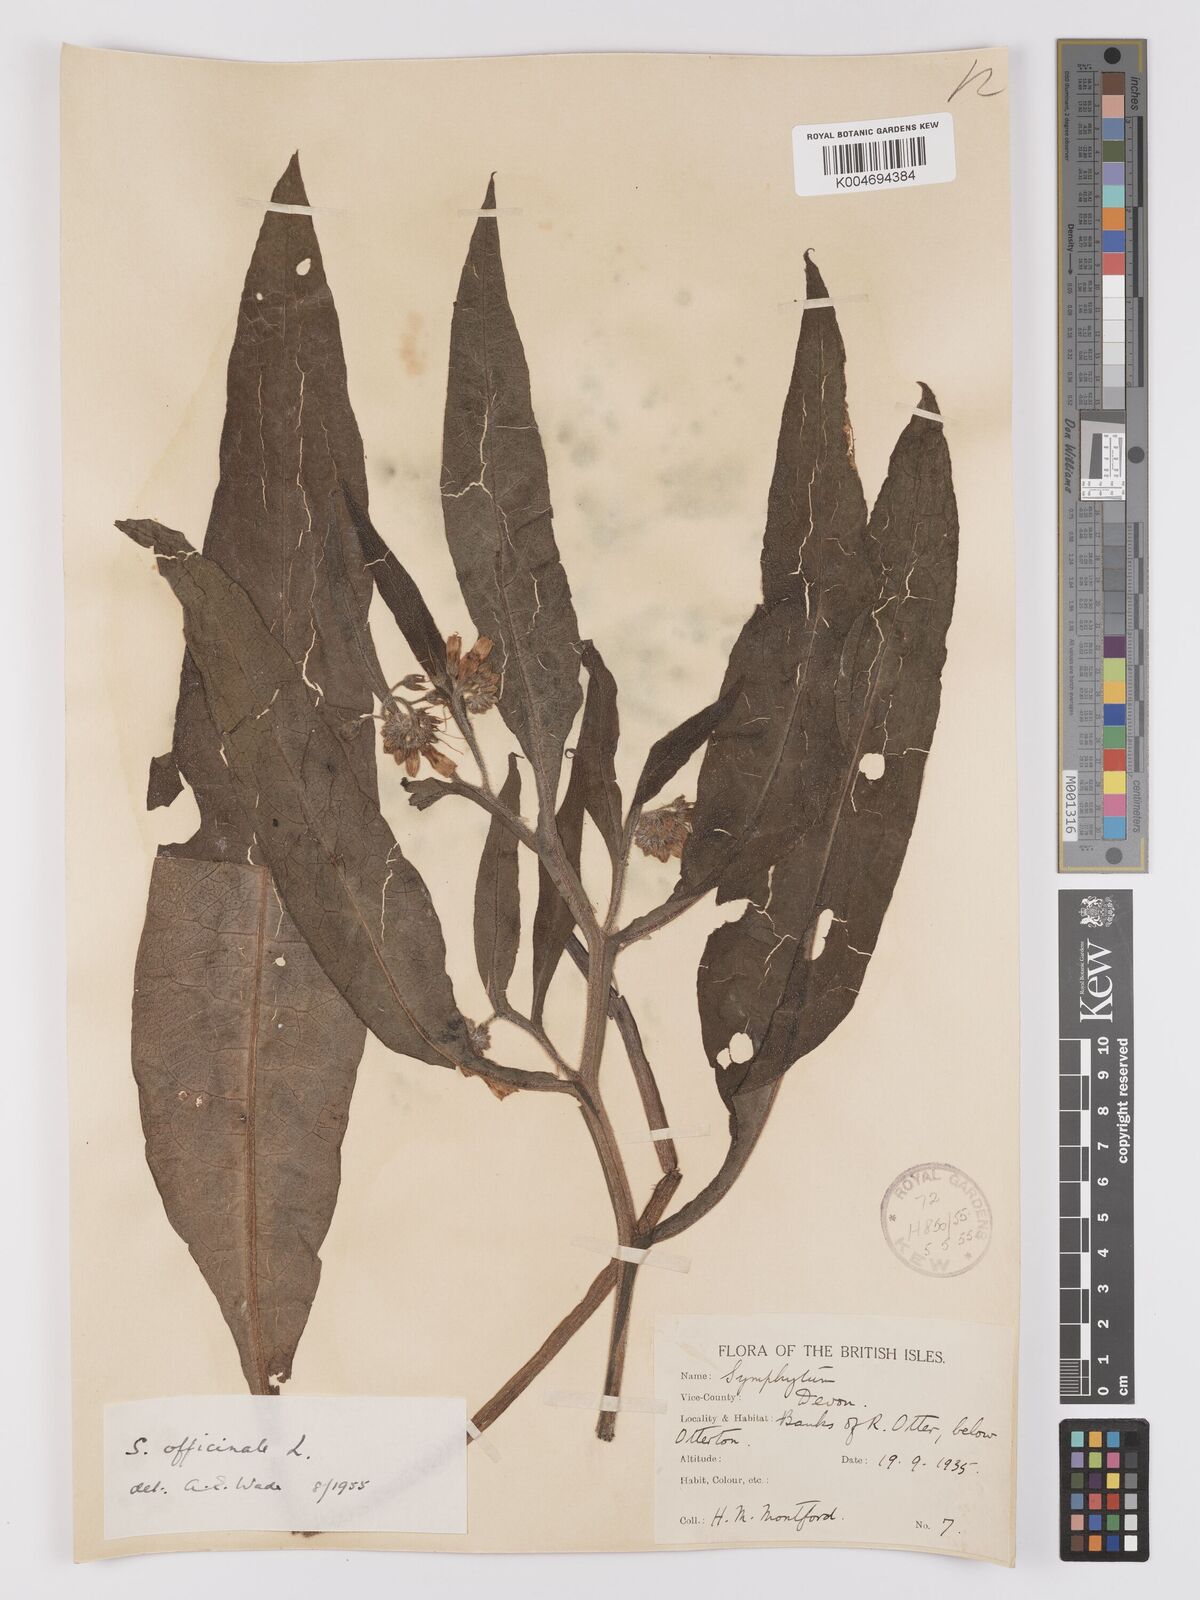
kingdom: Plantae
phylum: Tracheophyta
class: Magnoliopsida
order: Boraginales
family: Boraginaceae
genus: Symphytum
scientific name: Symphytum officinale
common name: Common comfrey
